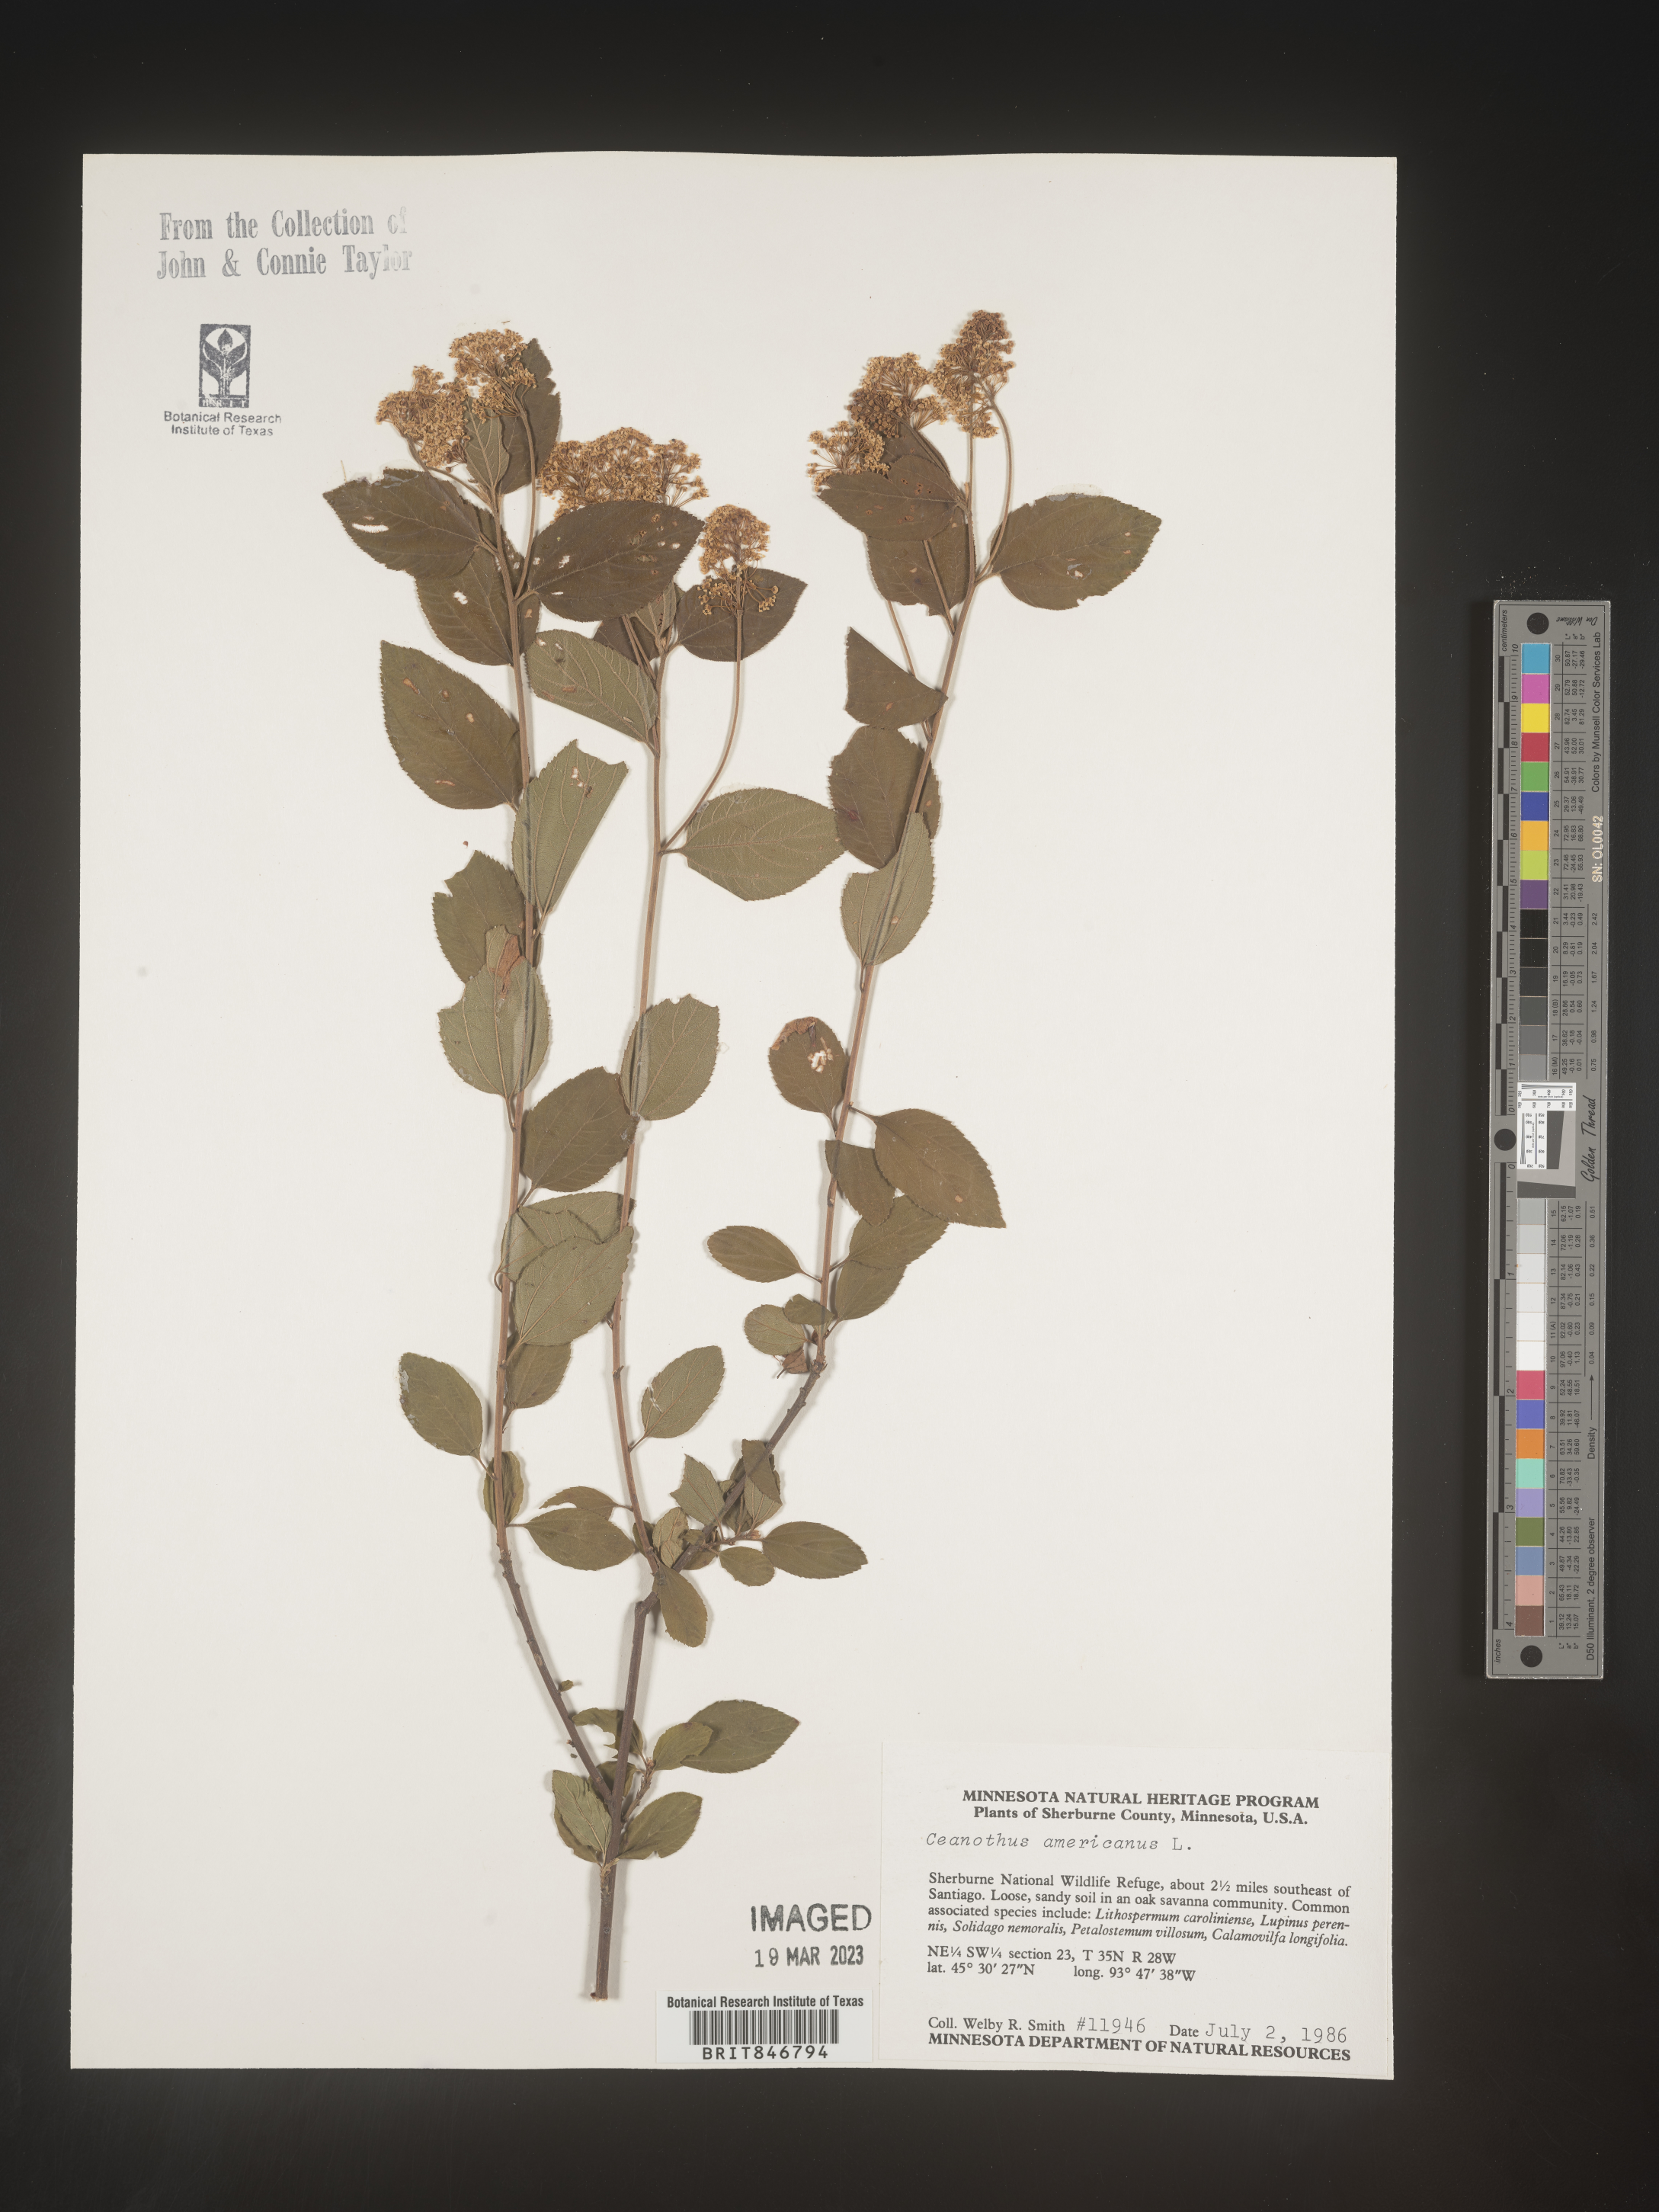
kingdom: Plantae
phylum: Tracheophyta
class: Magnoliopsida
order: Rosales
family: Rhamnaceae
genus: Ceanothus
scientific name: Ceanothus americanus
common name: Redroot
